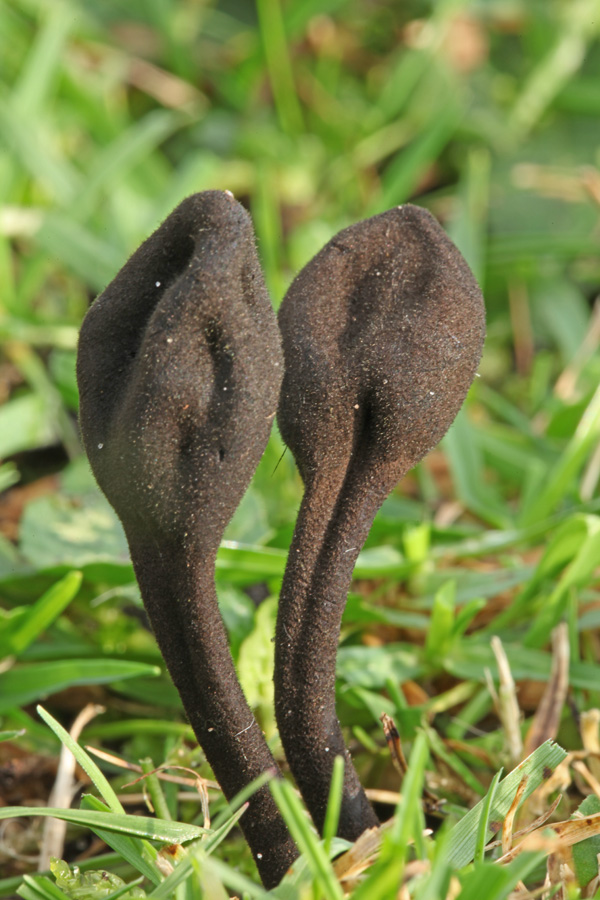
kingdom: Fungi
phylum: Ascomycota
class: Geoglossomycetes
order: Geoglossales
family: Geoglossaceae
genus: Trichoglossum
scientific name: Trichoglossum hirsutum
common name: håret jordtunge
